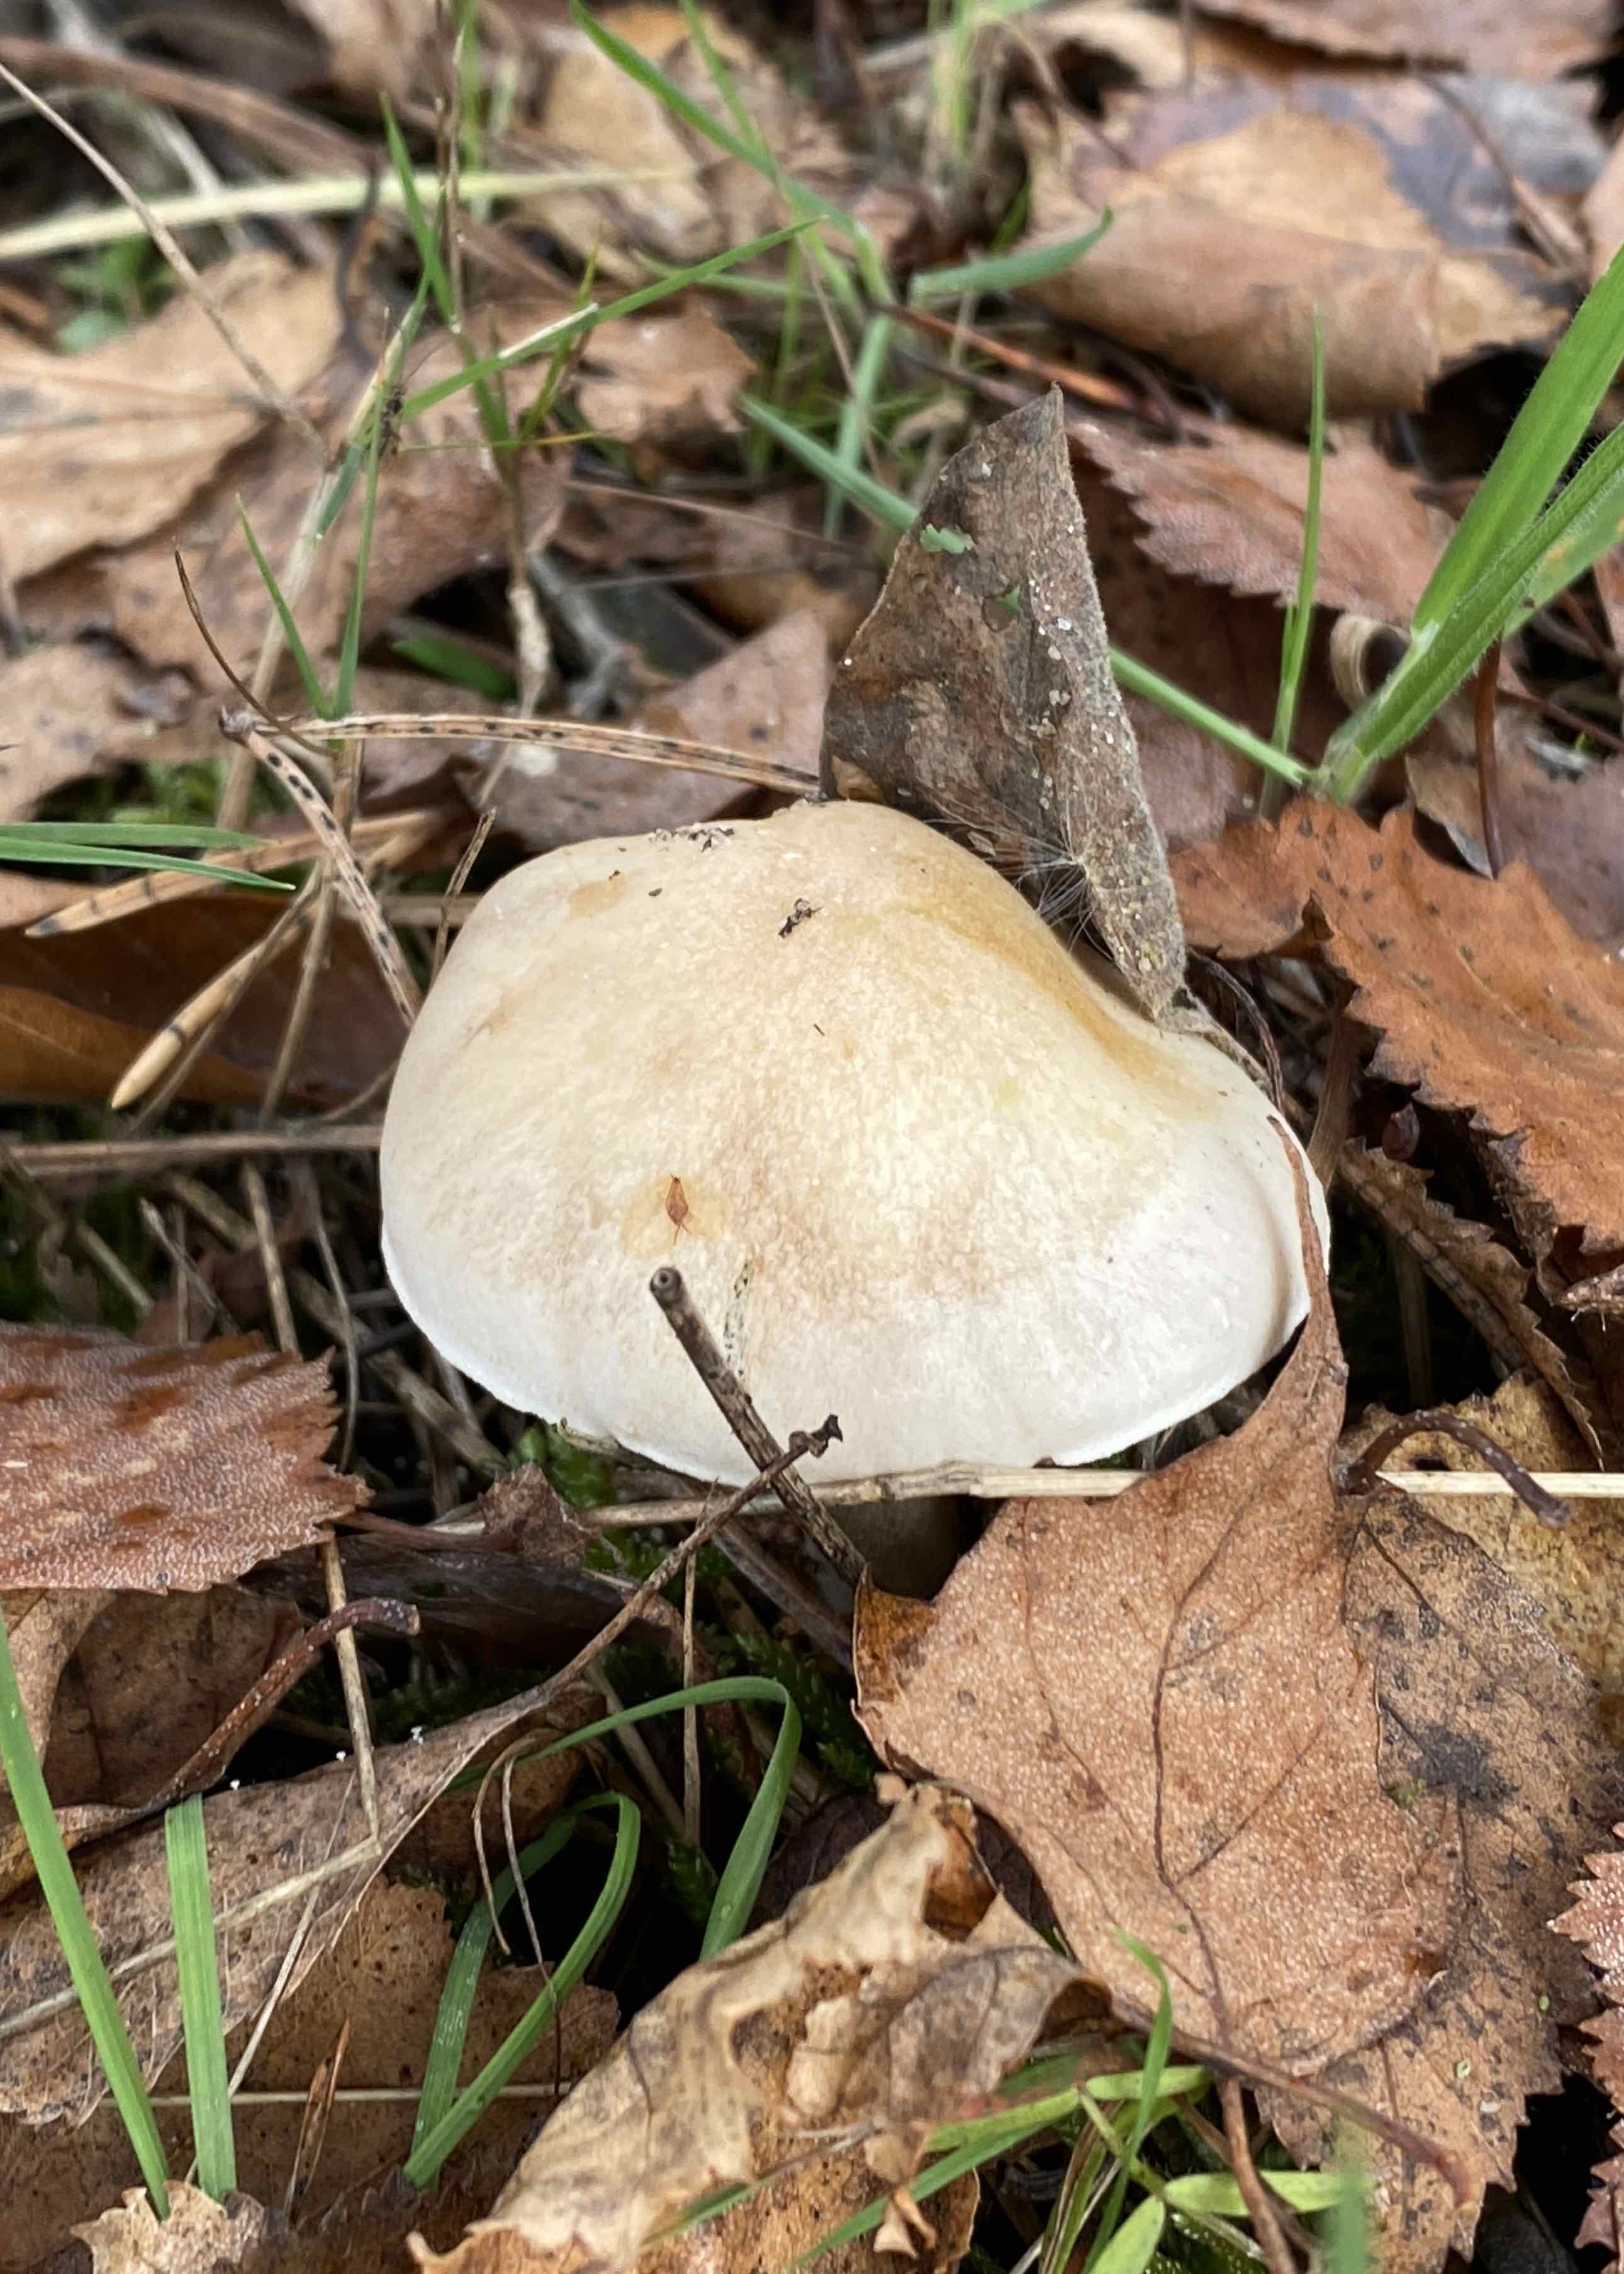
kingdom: Fungi
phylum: Basidiomycota
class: Agaricomycetes
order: Agaricales
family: Hymenogastraceae
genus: Hebeloma
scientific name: Hebeloma
